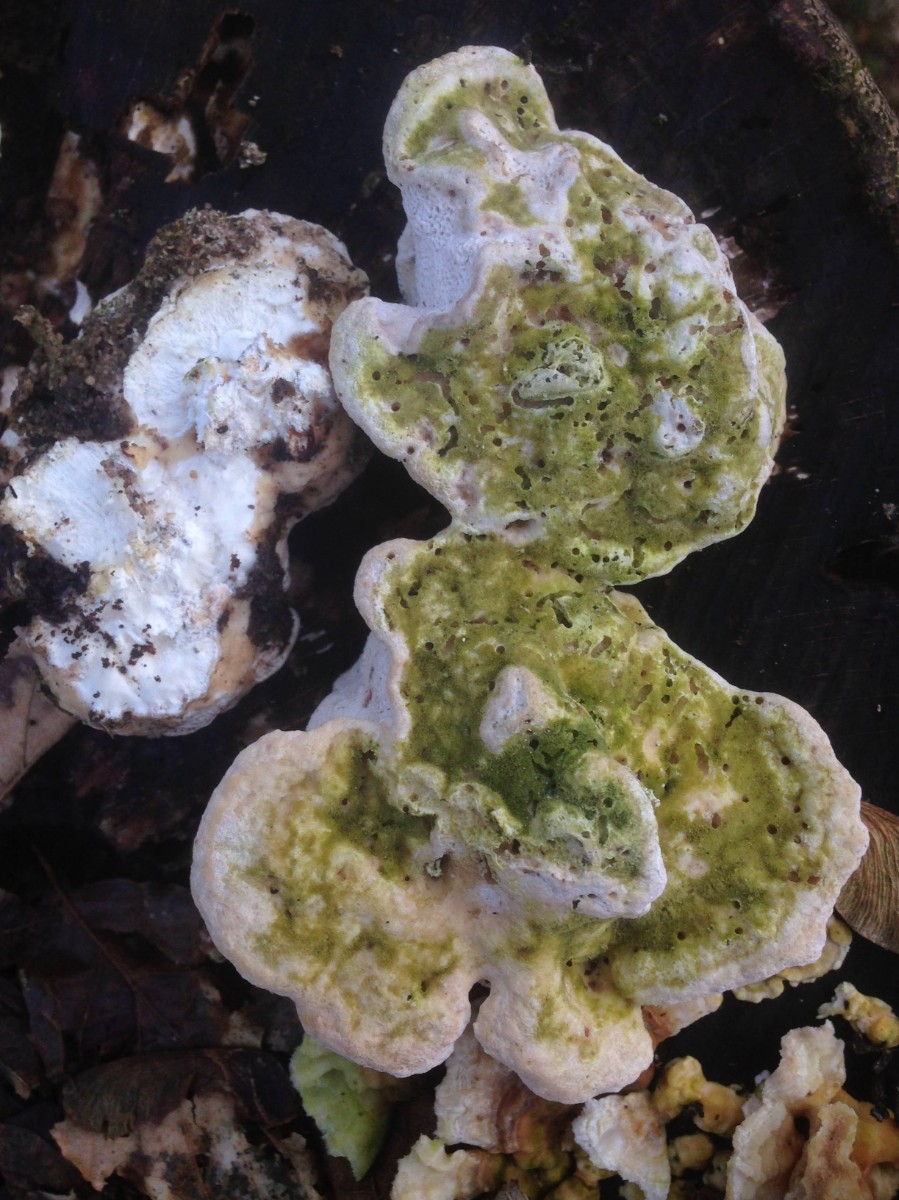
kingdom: Fungi
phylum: Basidiomycota
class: Agaricomycetes
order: Polyporales
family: Polyporaceae
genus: Trametes
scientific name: Trametes gibbosa
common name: puklet læderporesvamp
